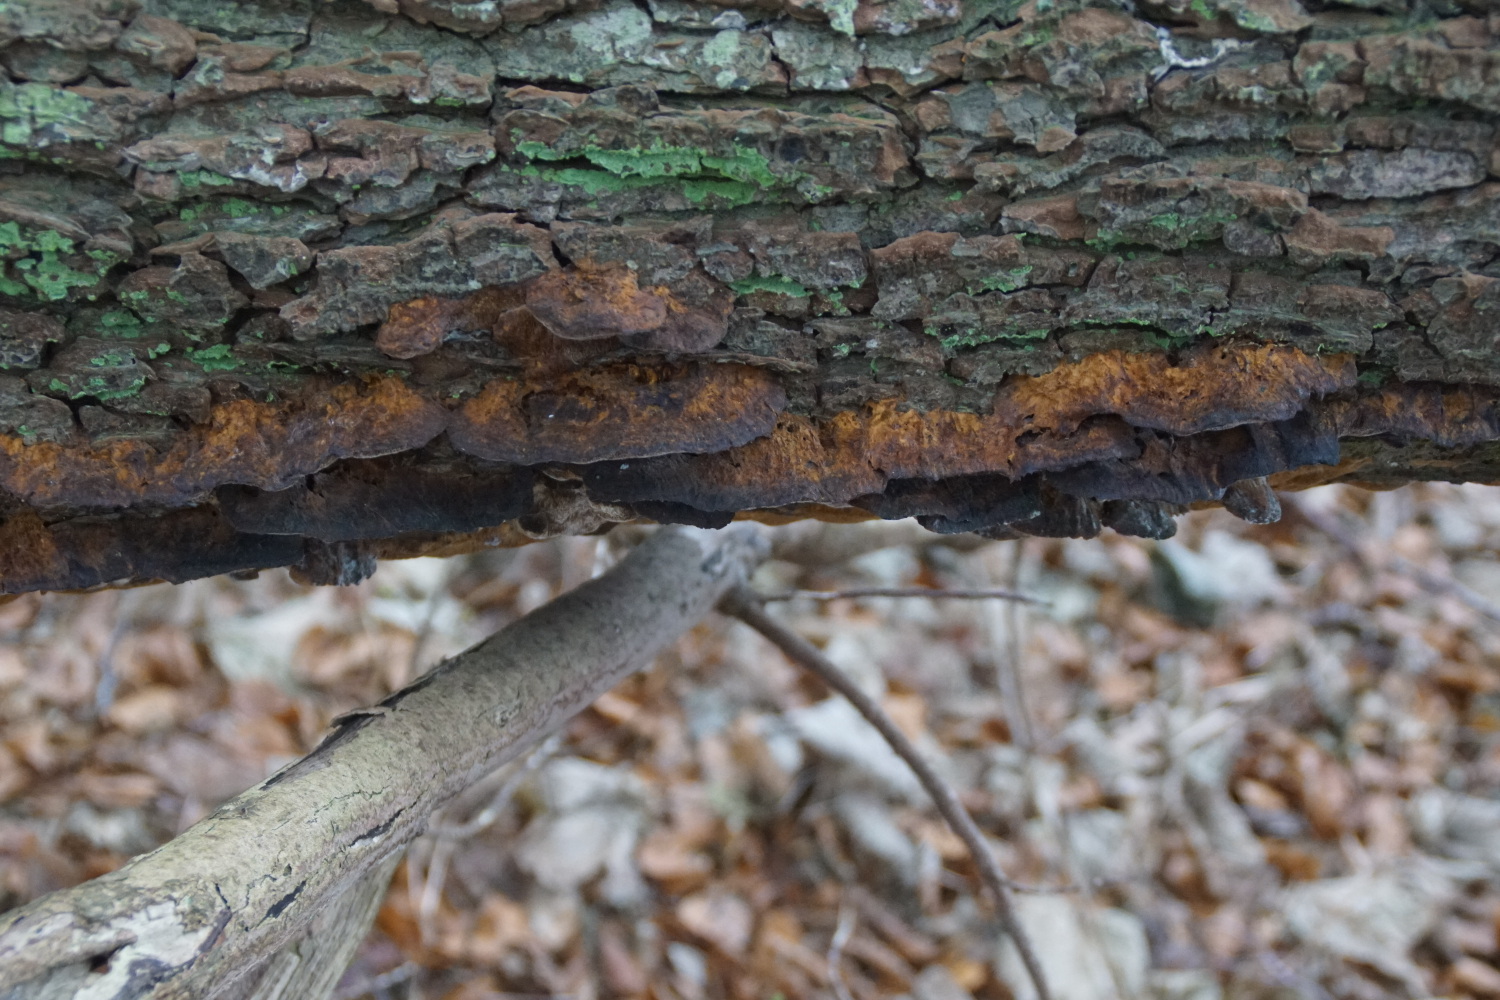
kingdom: Fungi
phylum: Basidiomycota
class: Agaricomycetes
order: Hymenochaetales
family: Hymenochaetaceae
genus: Xanthoporia
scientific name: Xanthoporia radiata
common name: elle-spejlporesvamp
